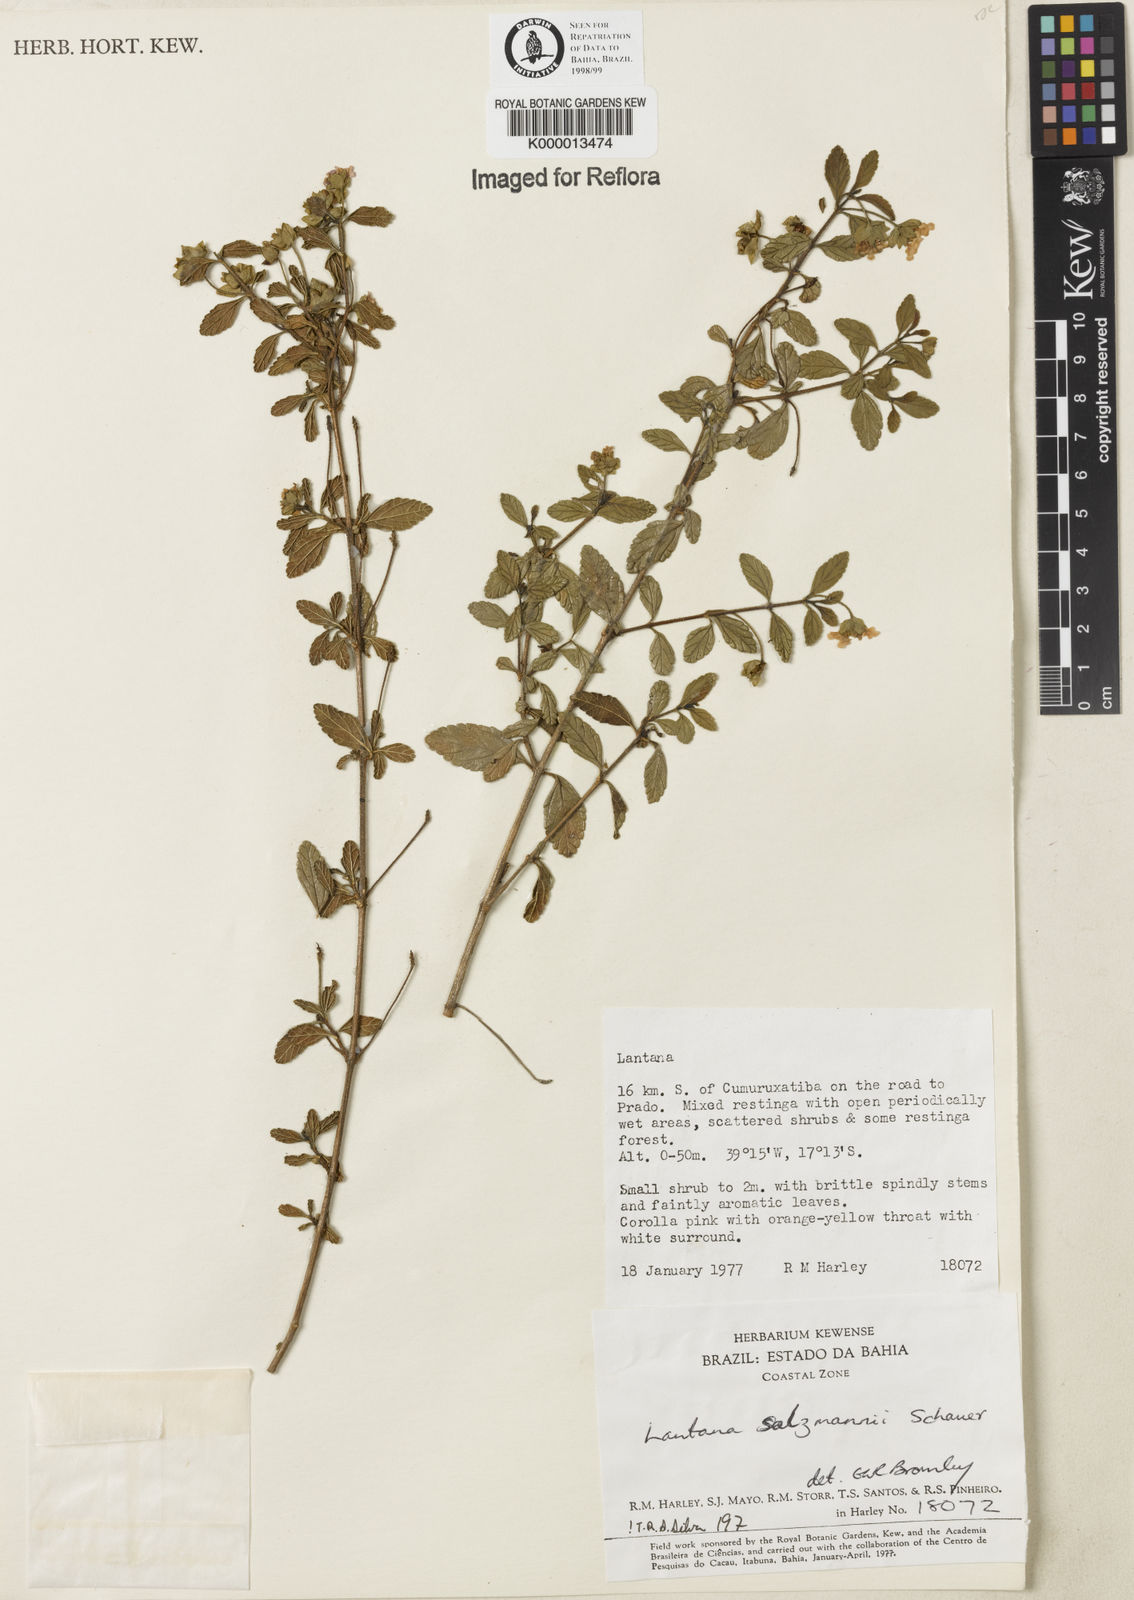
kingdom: Plantae
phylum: Tracheophyta
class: Magnoliopsida
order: Lamiales
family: Verbenaceae
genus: Lantana
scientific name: Lantana salzmannii
